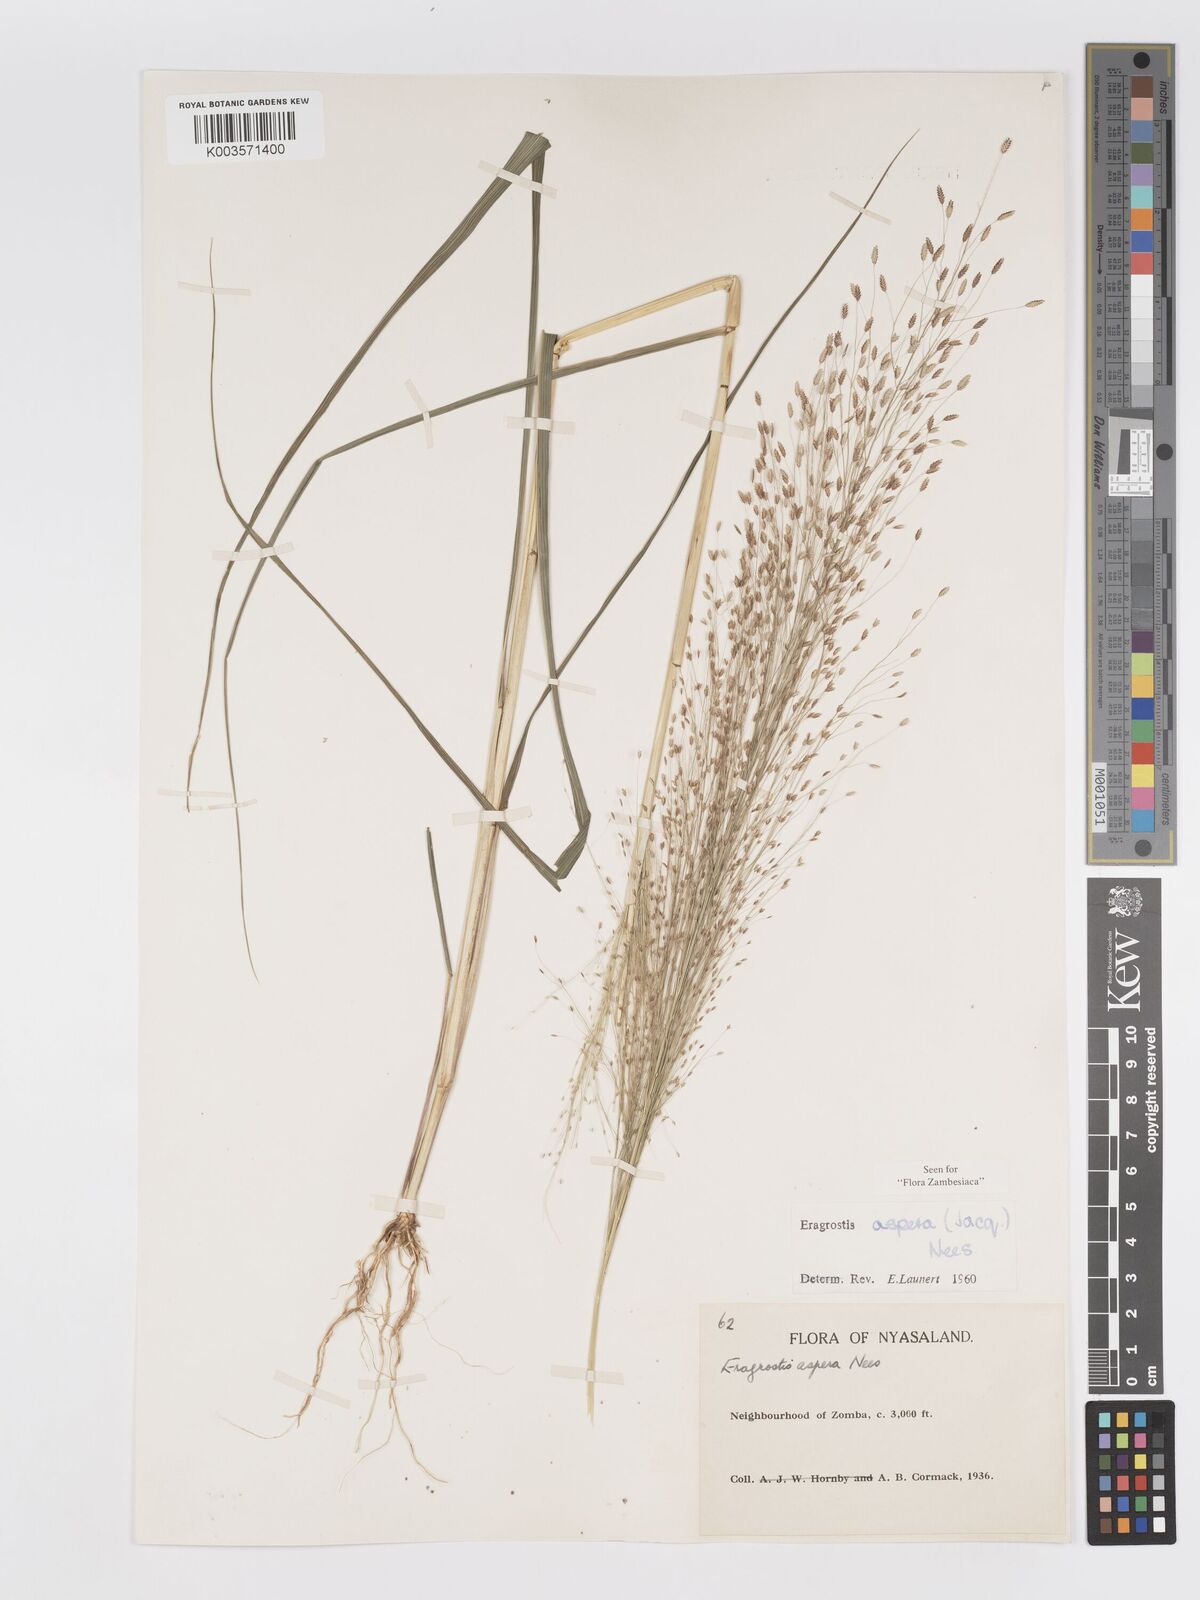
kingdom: Plantae
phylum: Tracheophyta
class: Liliopsida
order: Poales
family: Poaceae
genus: Eragrostis
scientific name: Eragrostis aspera
